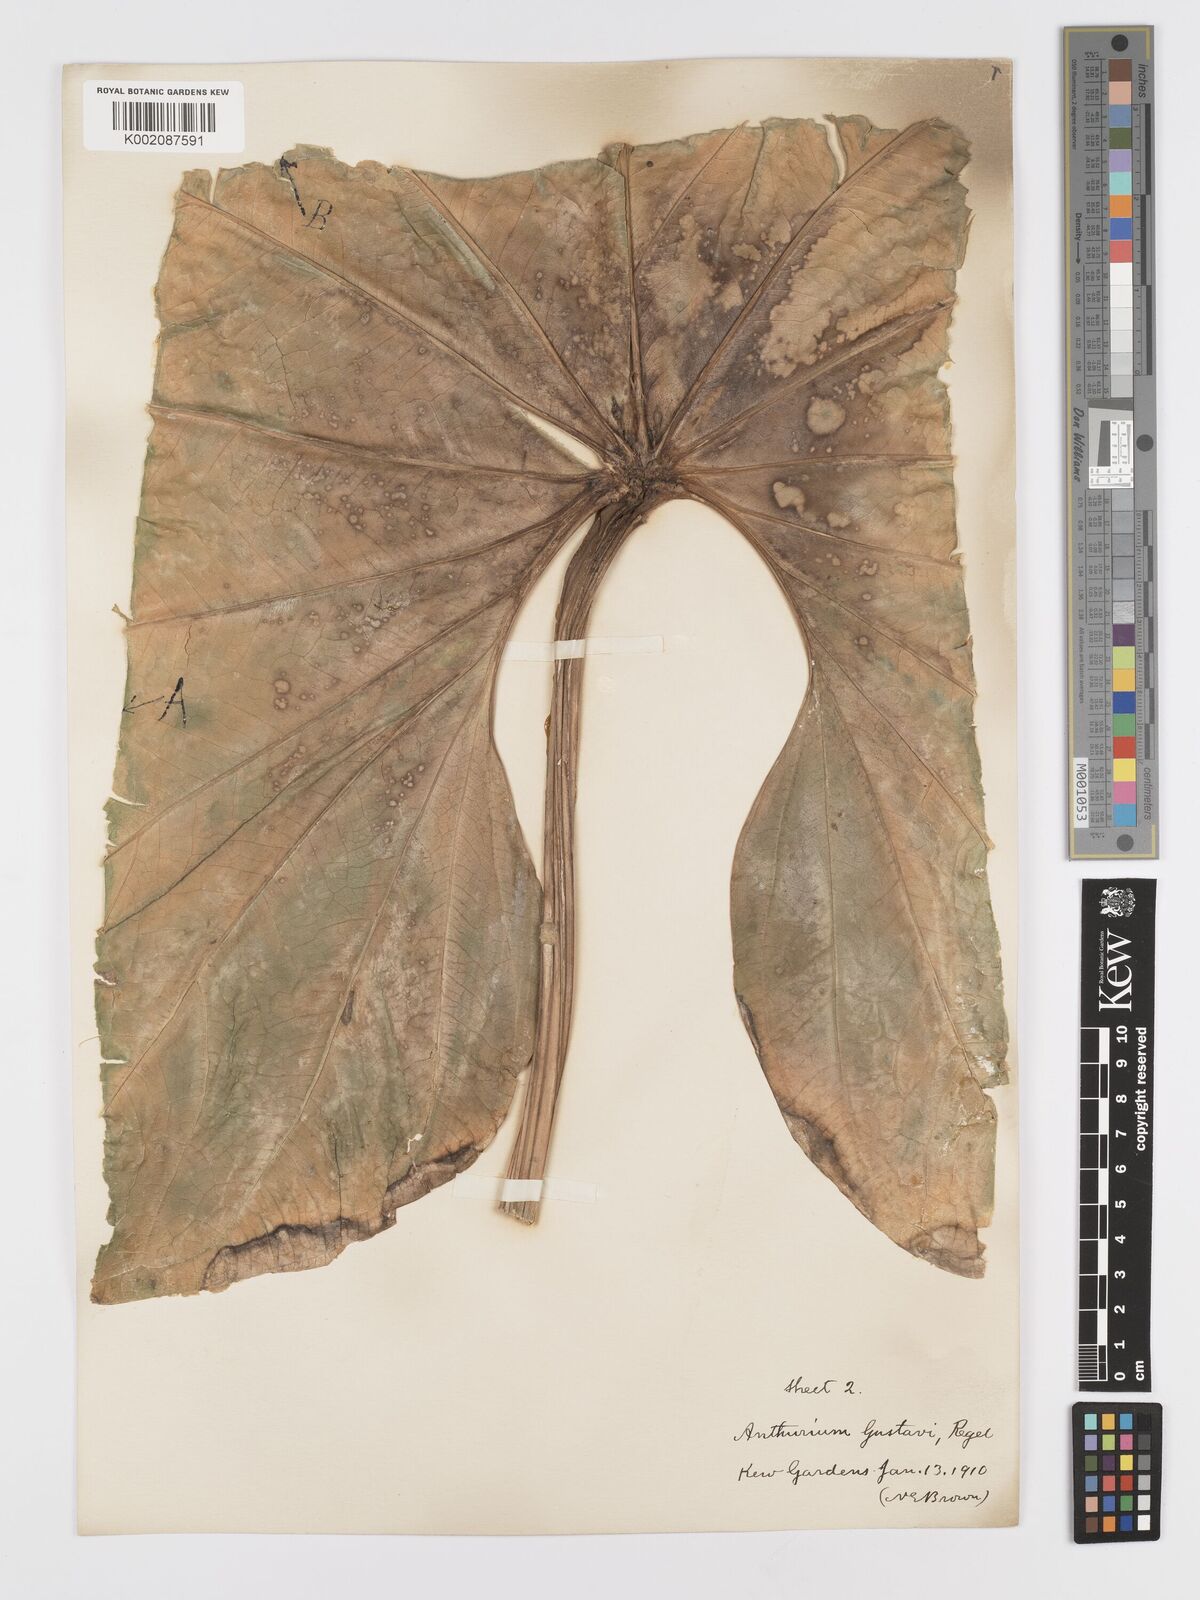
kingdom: Plantae
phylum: Tracheophyta
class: Liliopsida
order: Alismatales
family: Araceae
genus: Anthurium
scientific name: Anthurium gustavii
